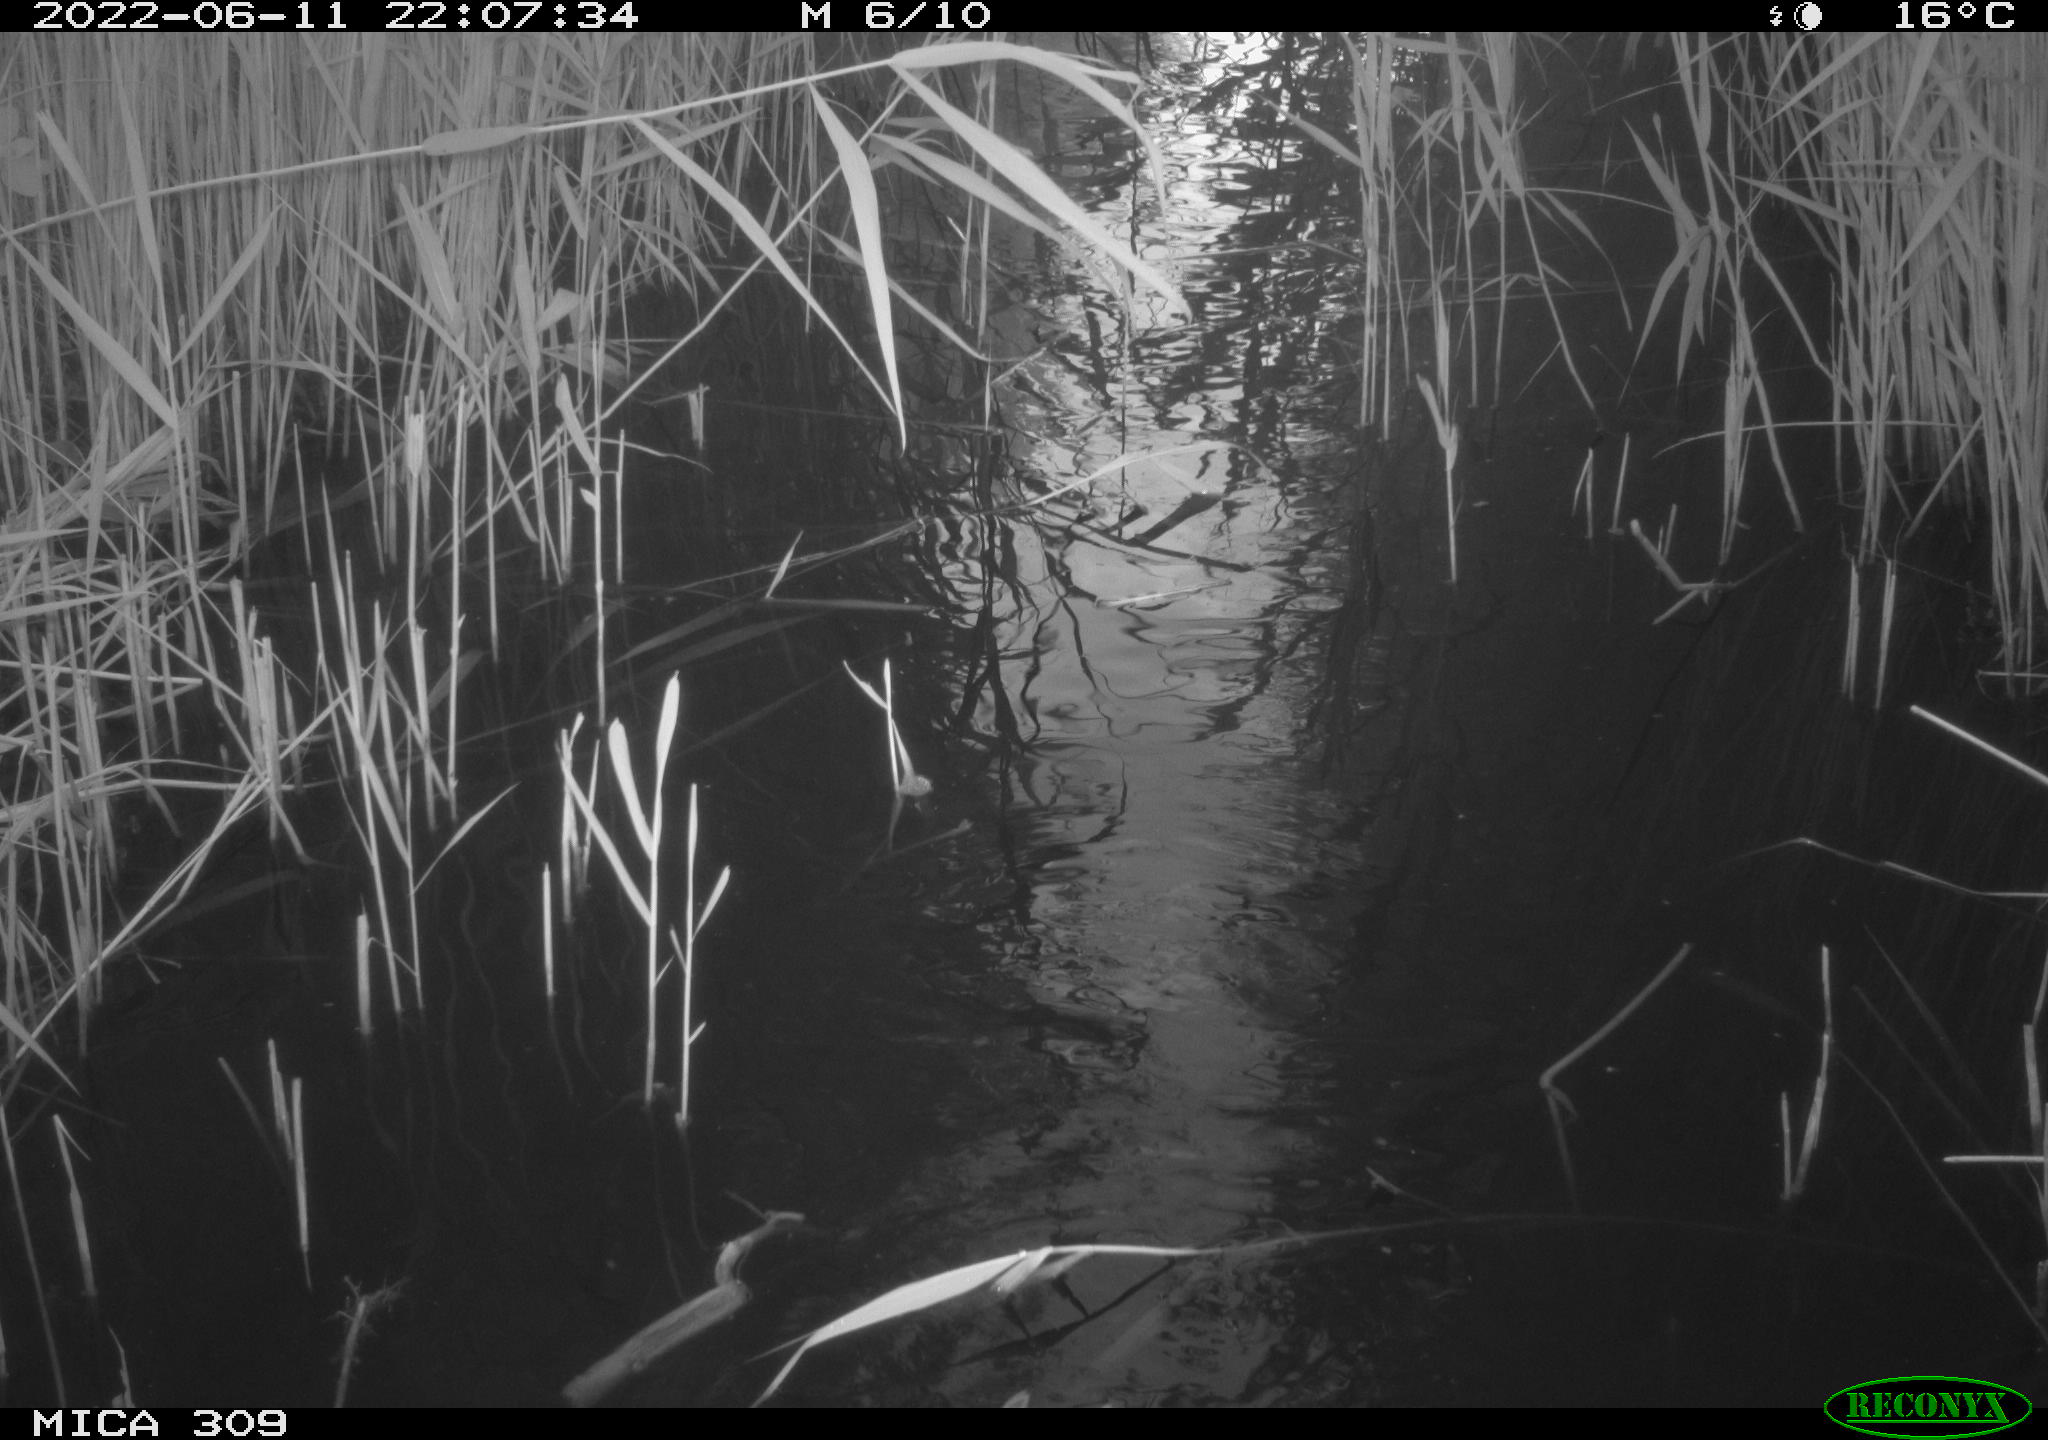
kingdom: Animalia
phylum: Chordata
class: Aves
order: Anseriformes
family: Anatidae
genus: Anas
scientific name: Anas platyrhynchos
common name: Mallard
